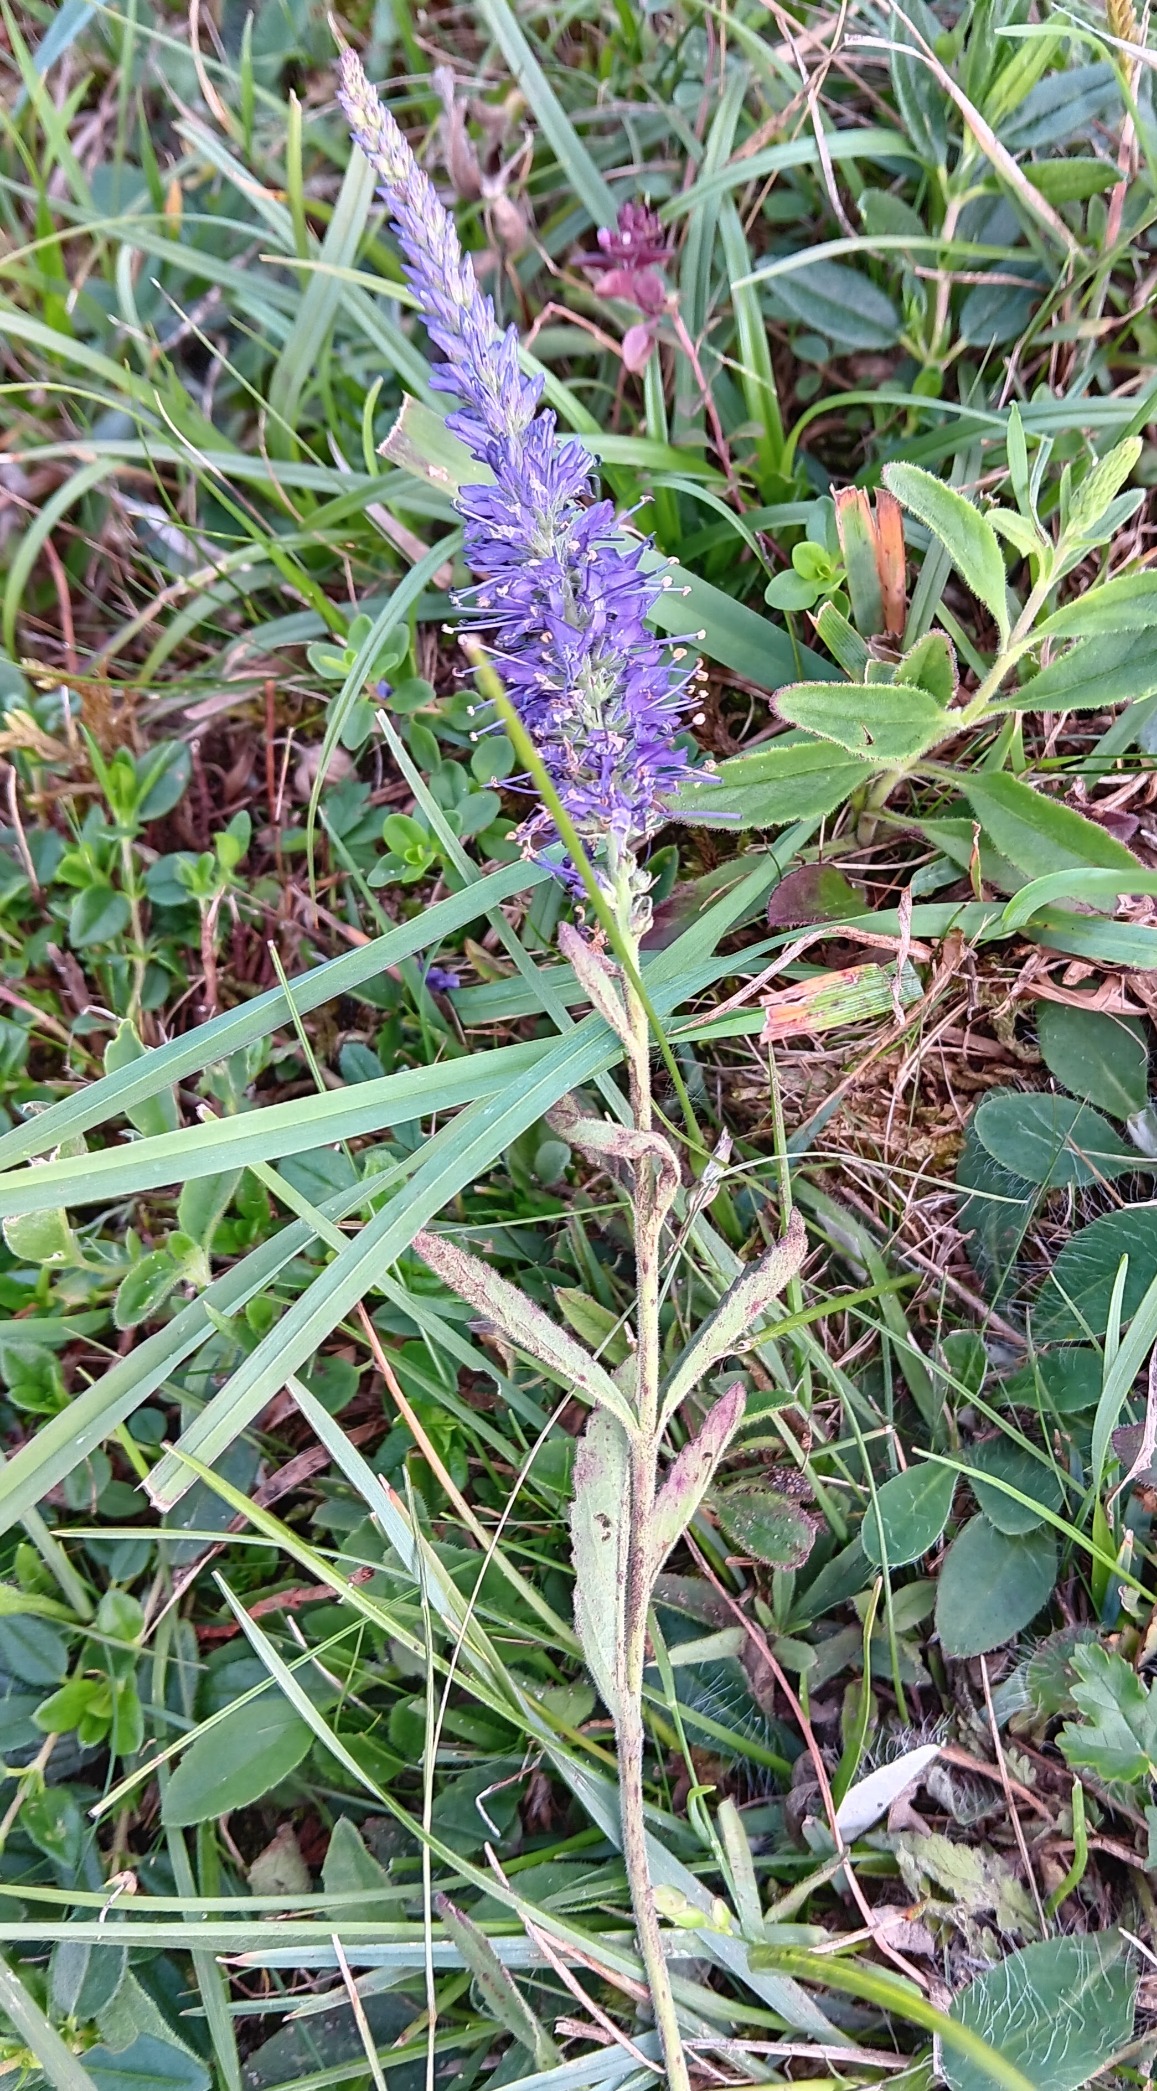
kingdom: Plantae
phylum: Tracheophyta
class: Magnoliopsida
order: Lamiales
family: Plantaginaceae
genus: Veronica
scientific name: Veronica spicata
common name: Aks-ærenpris
